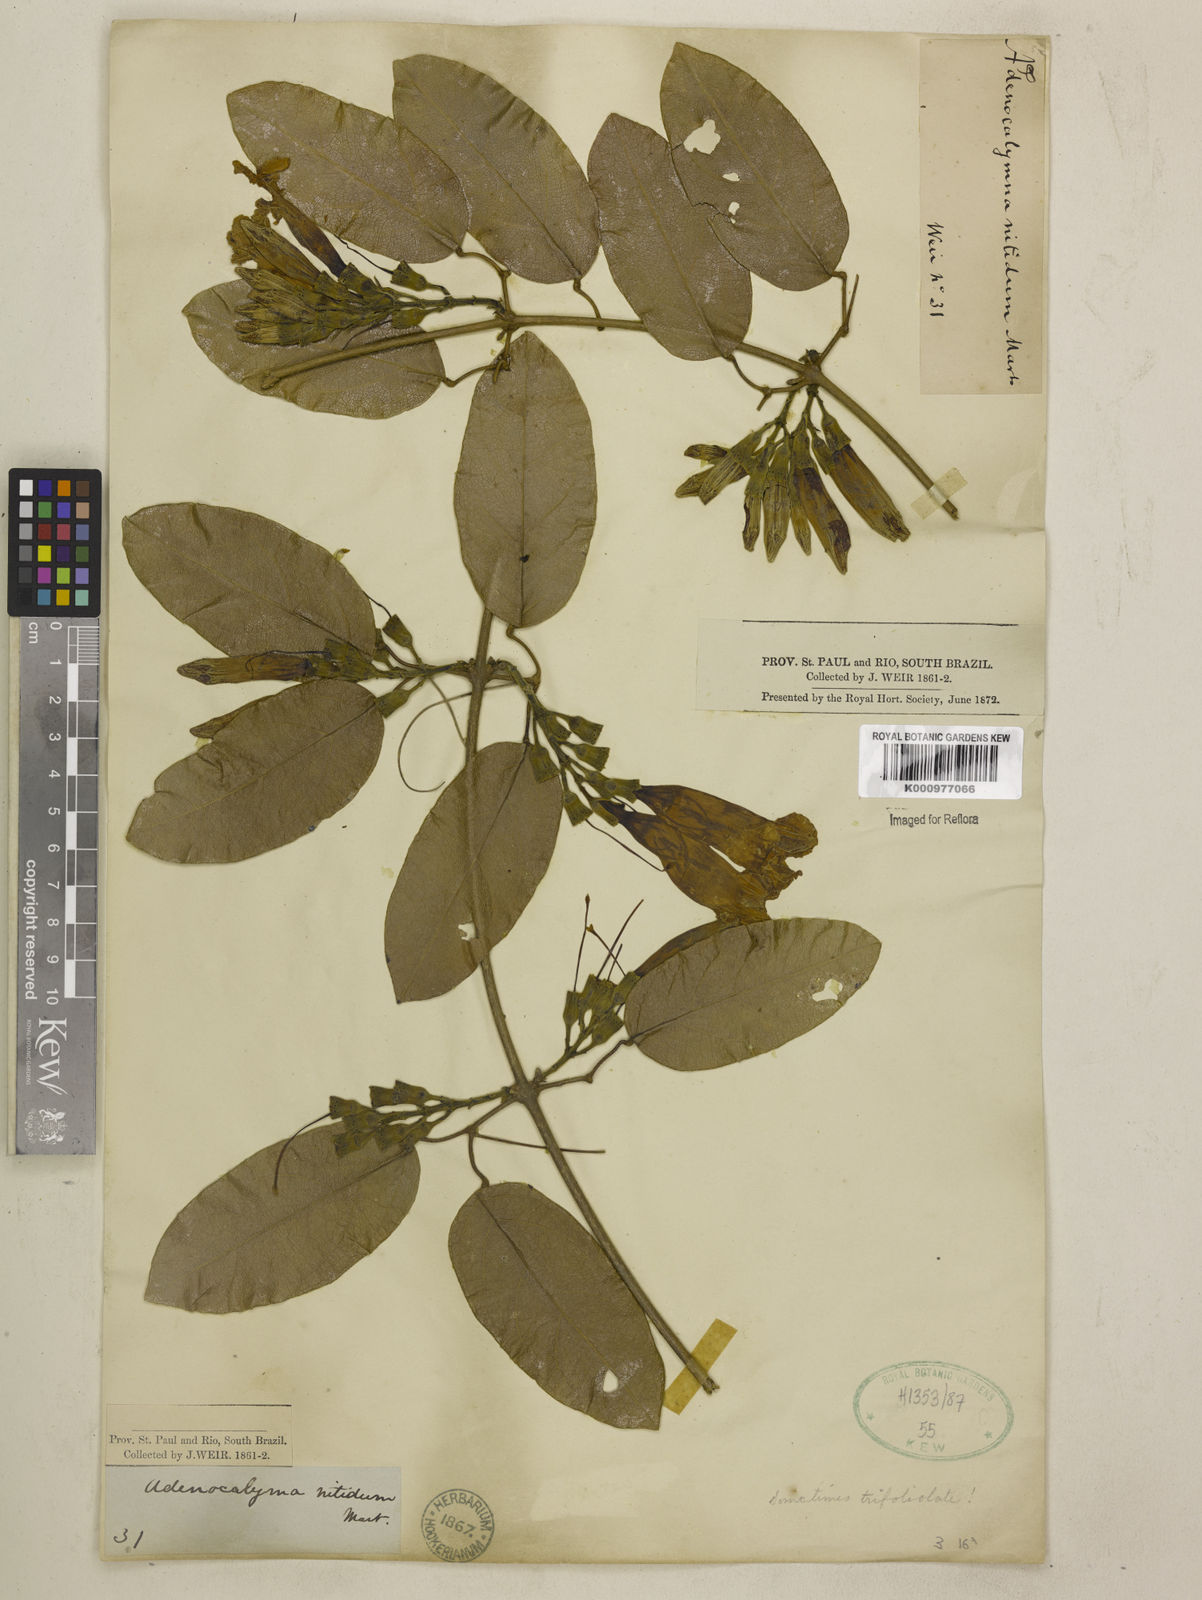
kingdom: Plantae
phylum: Tracheophyta
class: Magnoliopsida
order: Lamiales
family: Bignoniaceae
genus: Adenocalymma
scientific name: Adenocalymma
